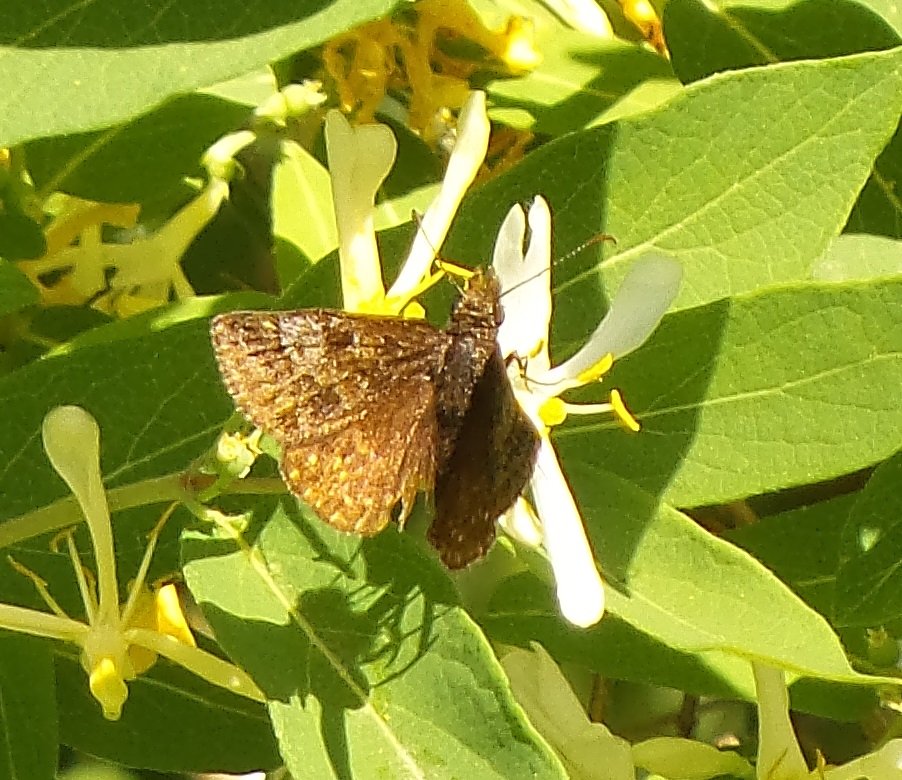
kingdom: Animalia
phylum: Arthropoda
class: Insecta
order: Lepidoptera
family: Hesperiidae
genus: Erynnis
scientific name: Erynnis icelus
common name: Dreamy Duskywing
